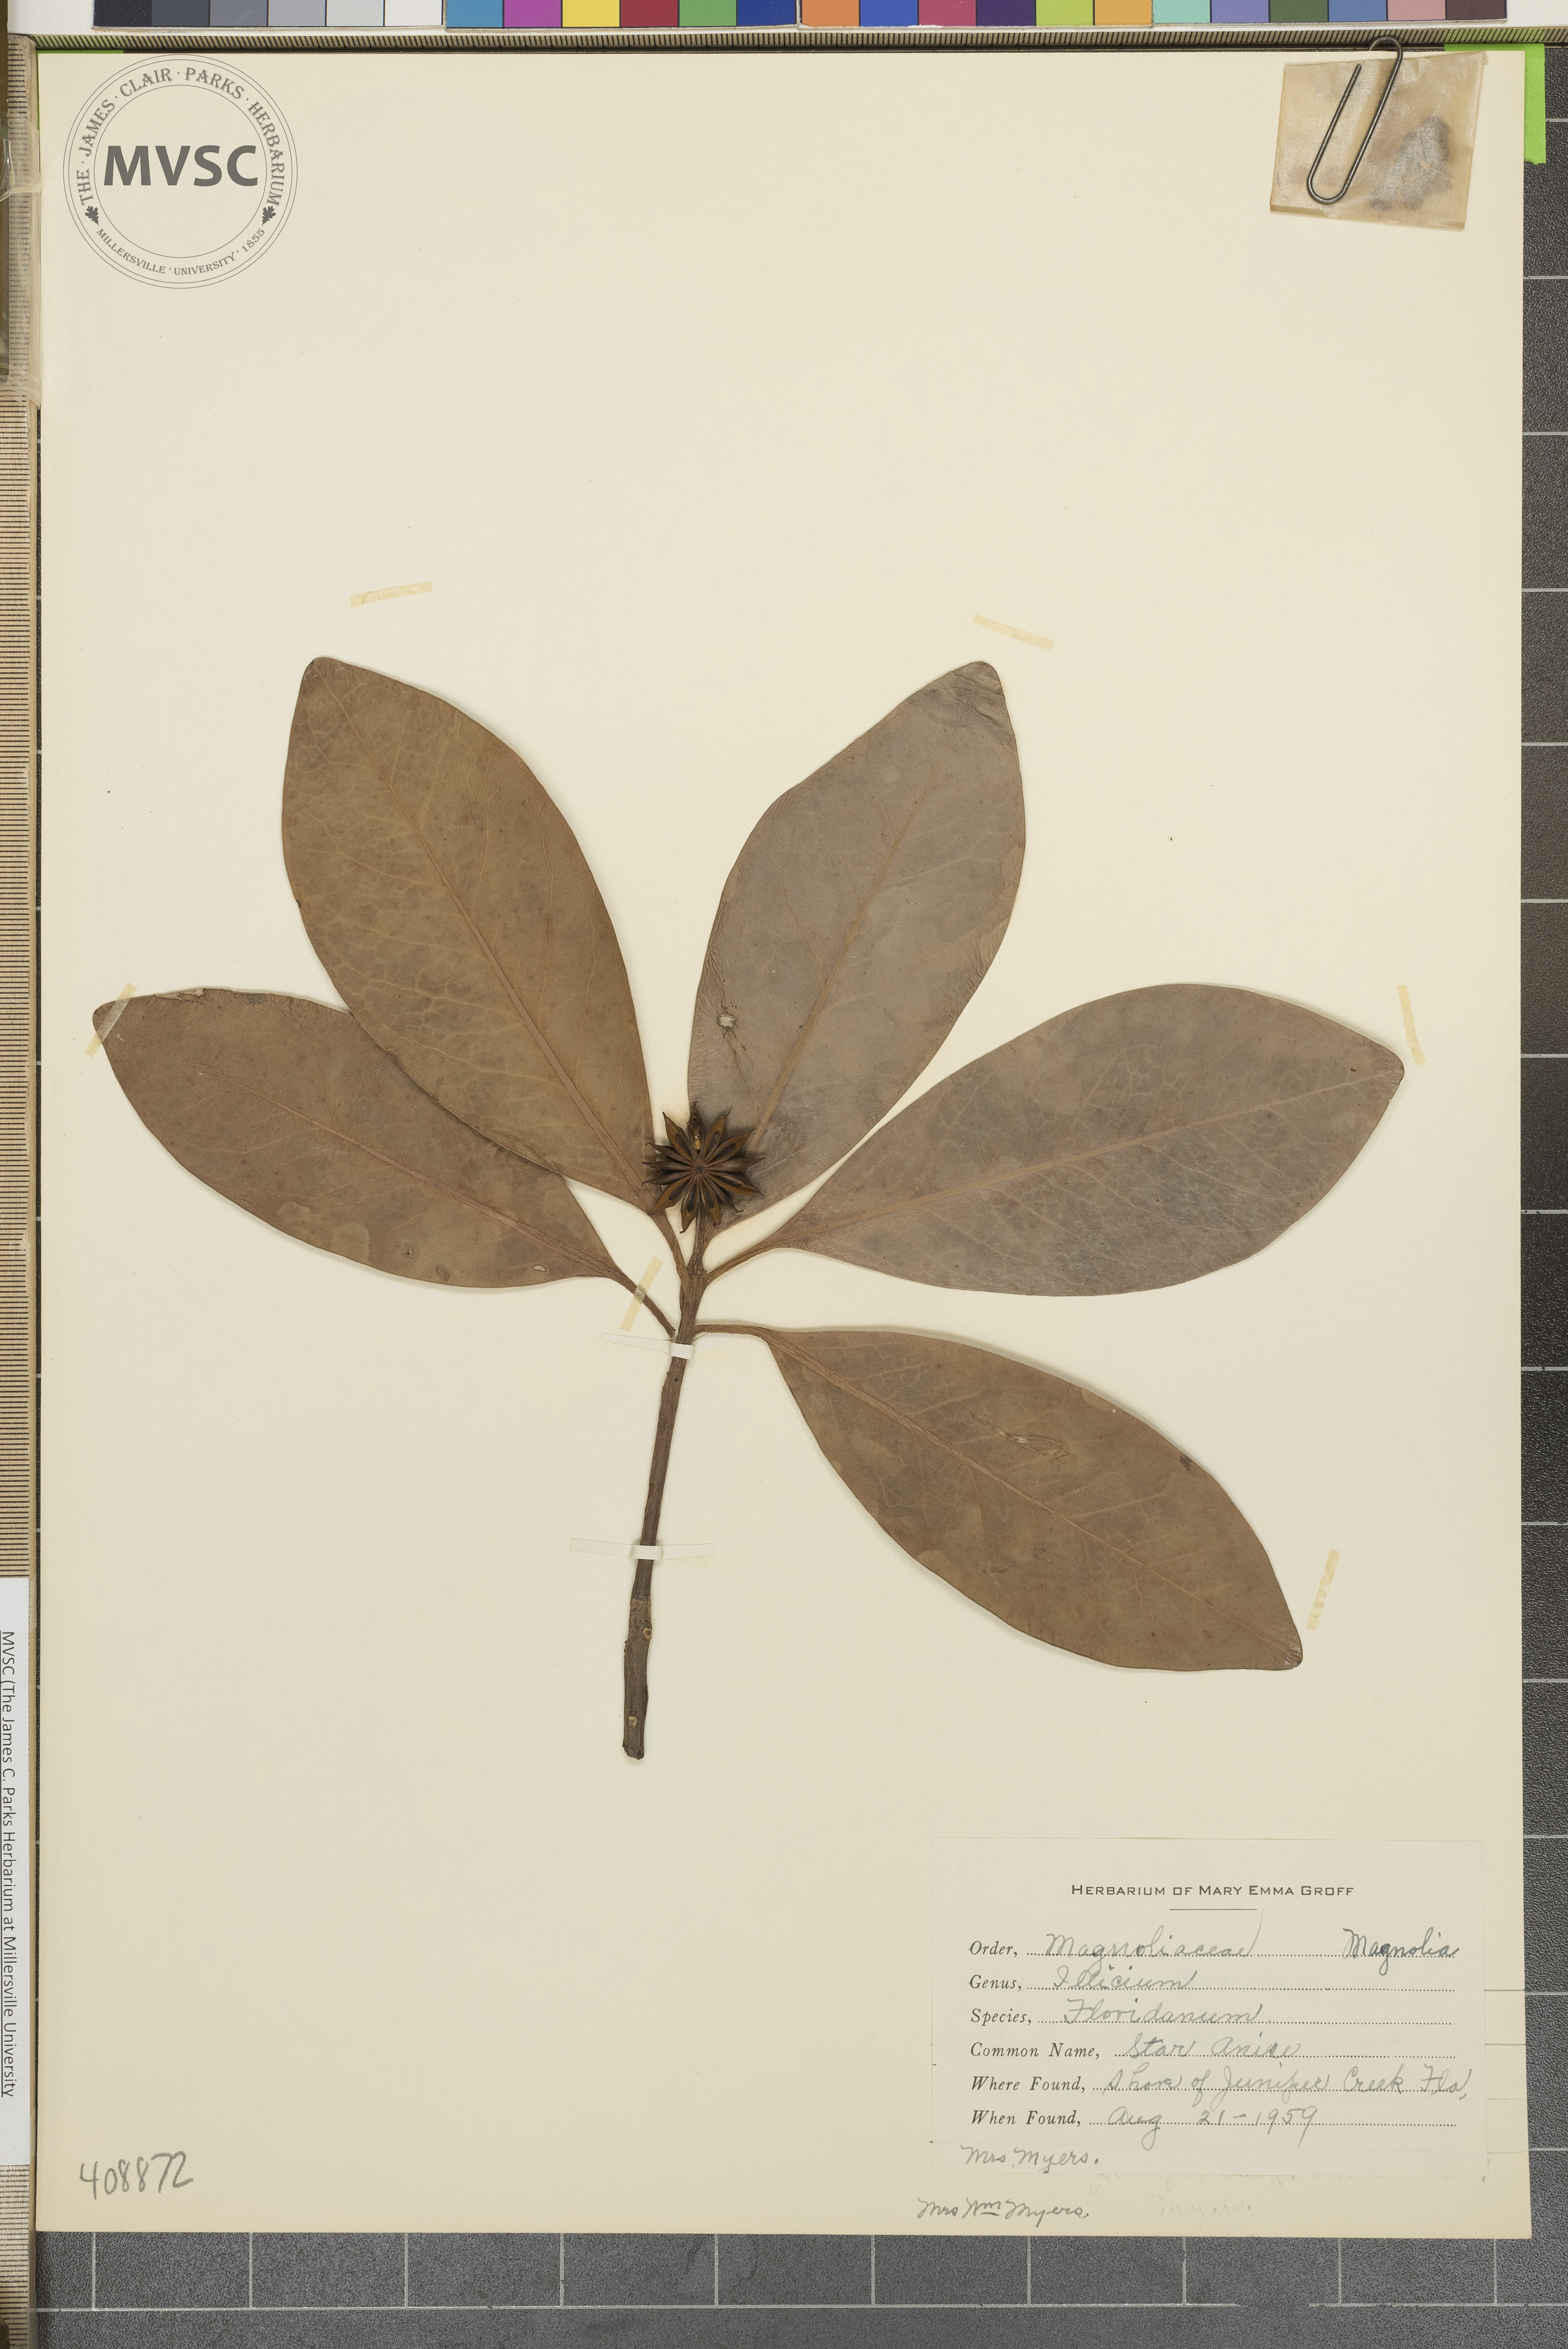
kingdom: Plantae
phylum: Tracheophyta
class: Magnoliopsida
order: Austrobaileyales
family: Schisandraceae
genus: Illicium
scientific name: Illicium floridanum
